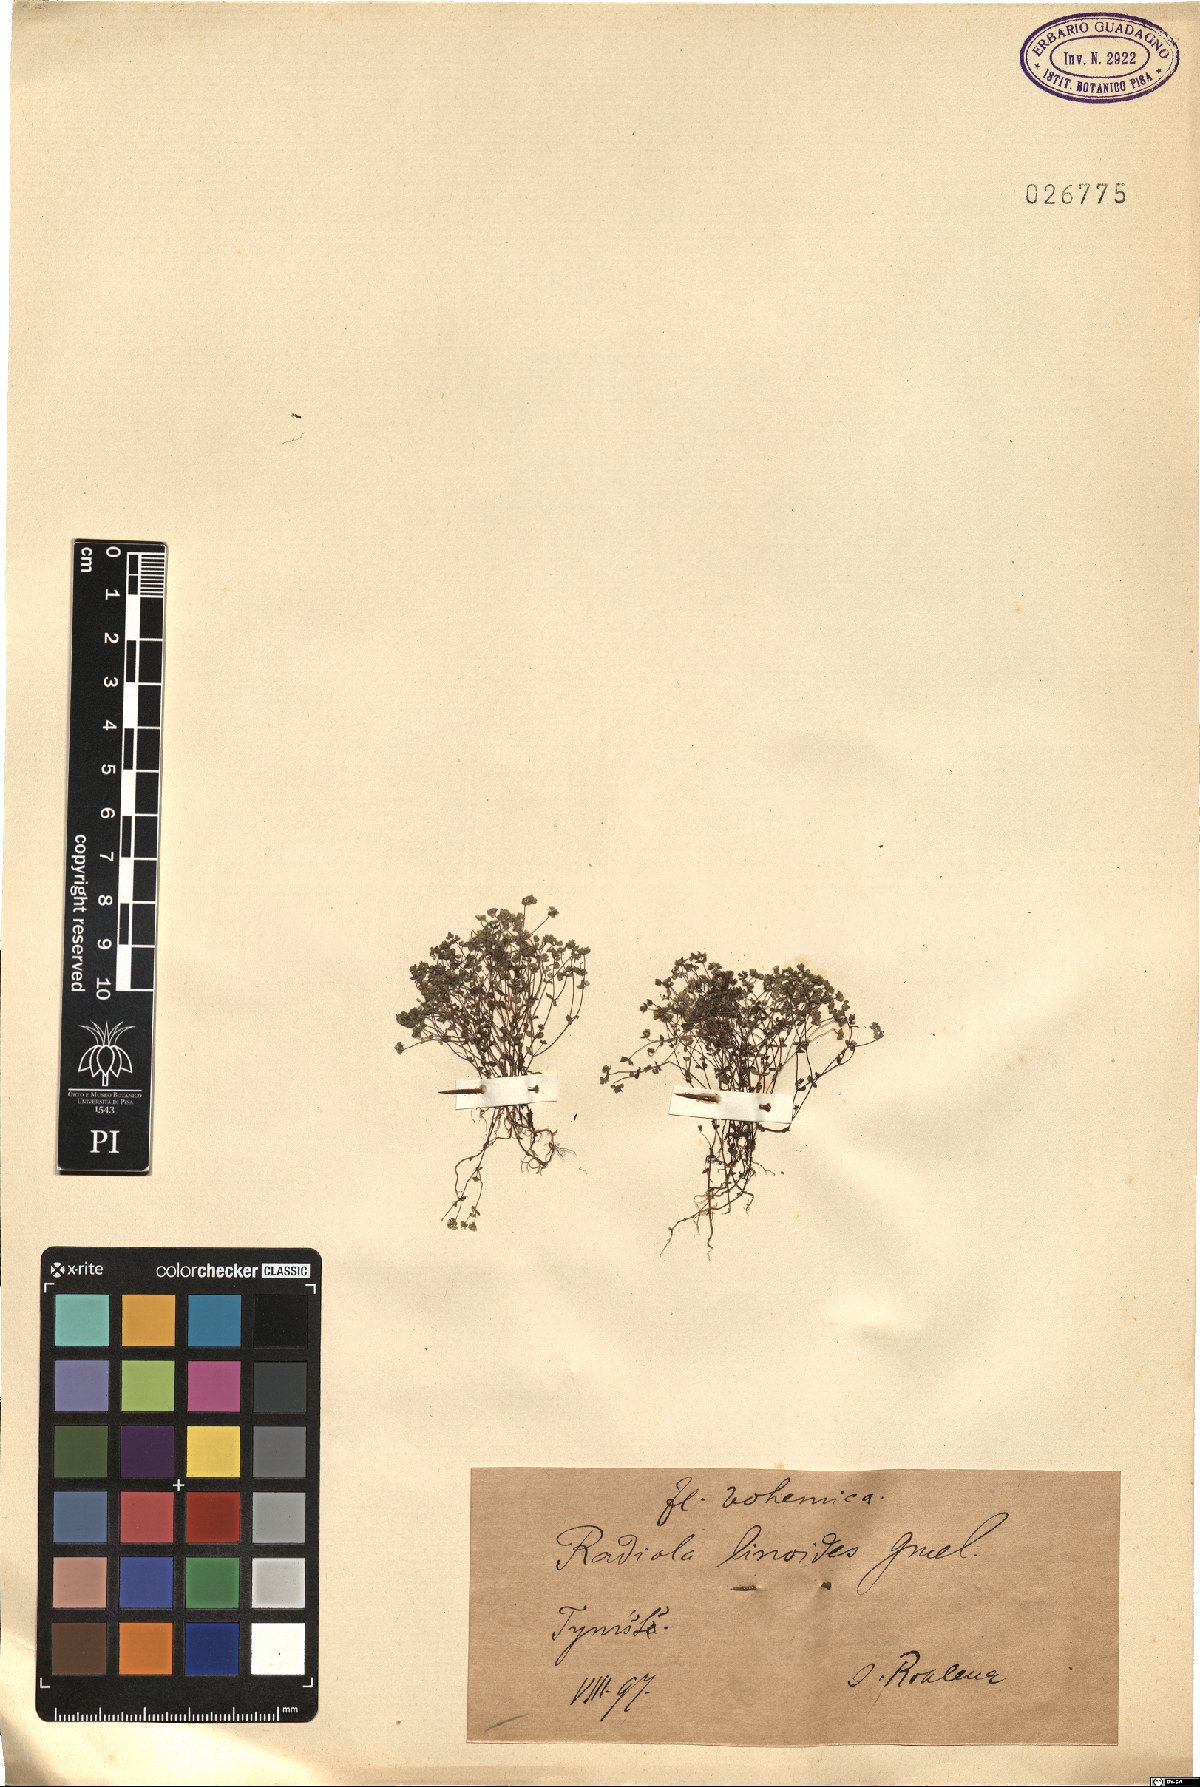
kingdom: Plantae
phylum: Tracheophyta
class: Magnoliopsida
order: Malpighiales
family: Linaceae
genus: Radiola
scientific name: Radiola linoides
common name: Allseed
